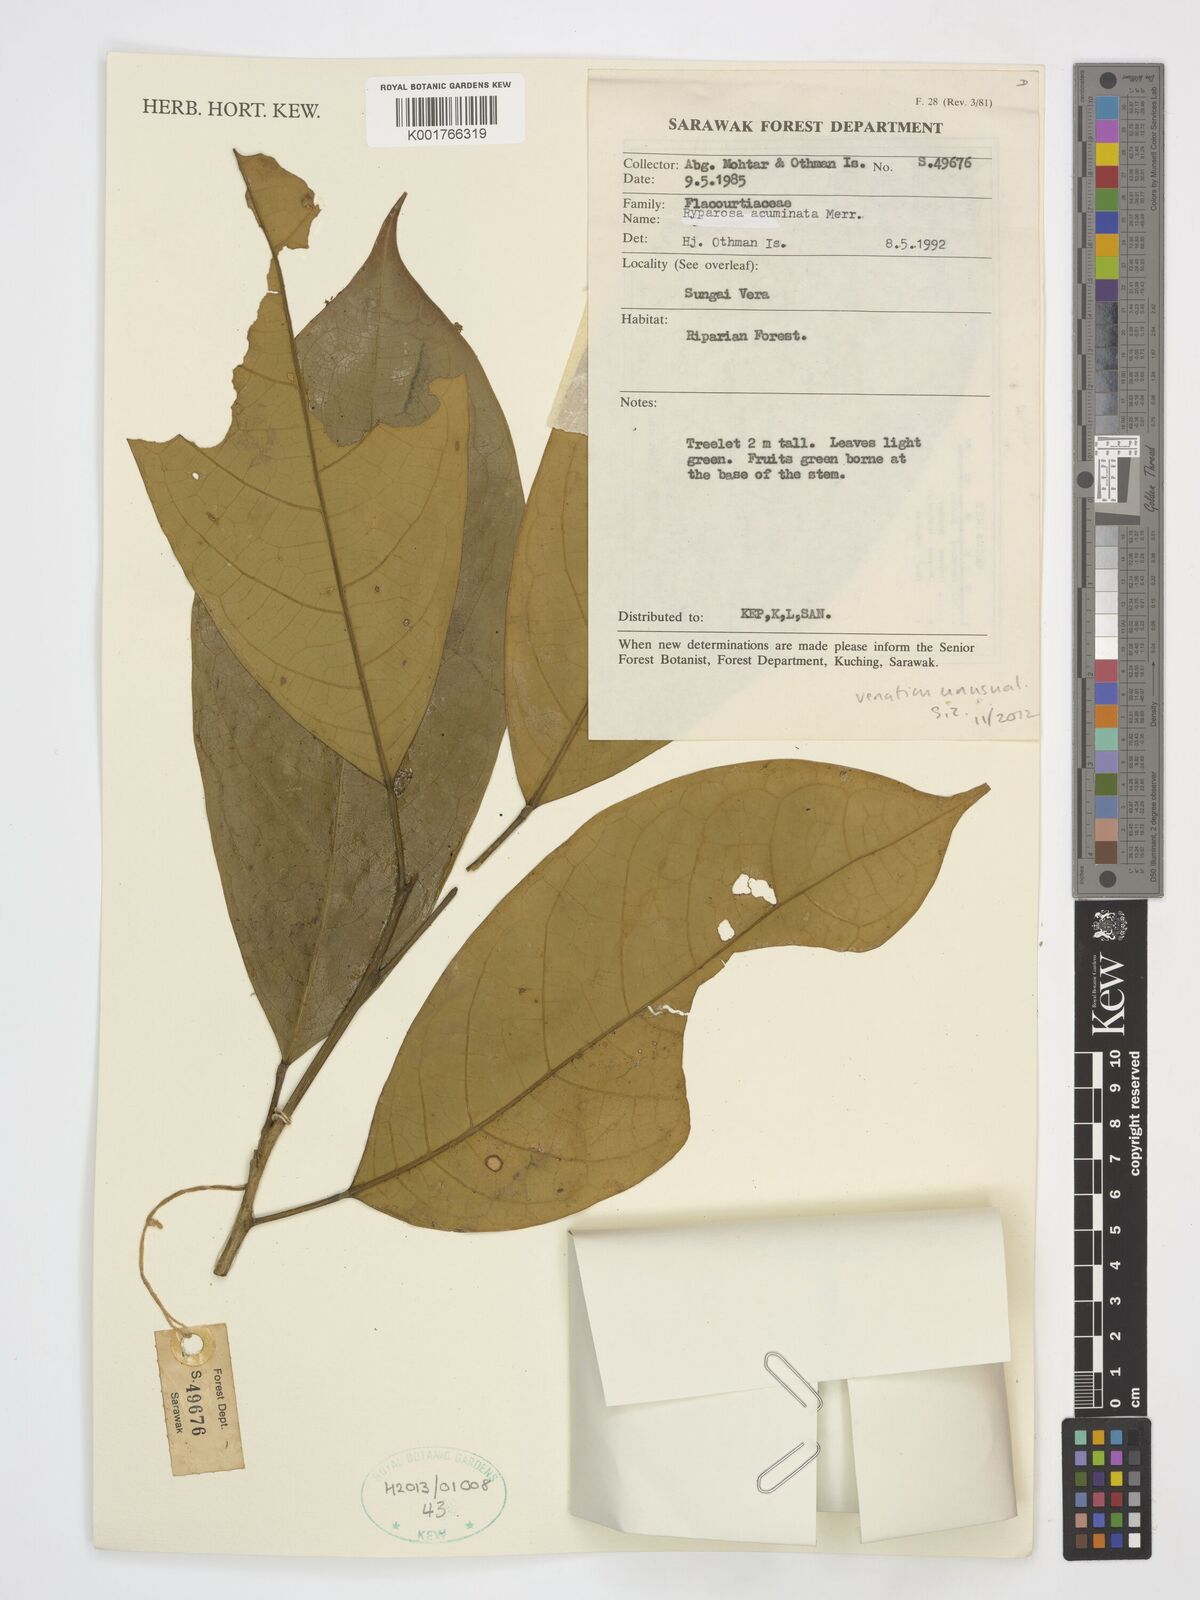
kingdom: Plantae
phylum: Tracheophyta
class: Magnoliopsida
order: Malpighiales
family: Achariaceae
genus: Ryparosa
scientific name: Ryparosa acuminata
